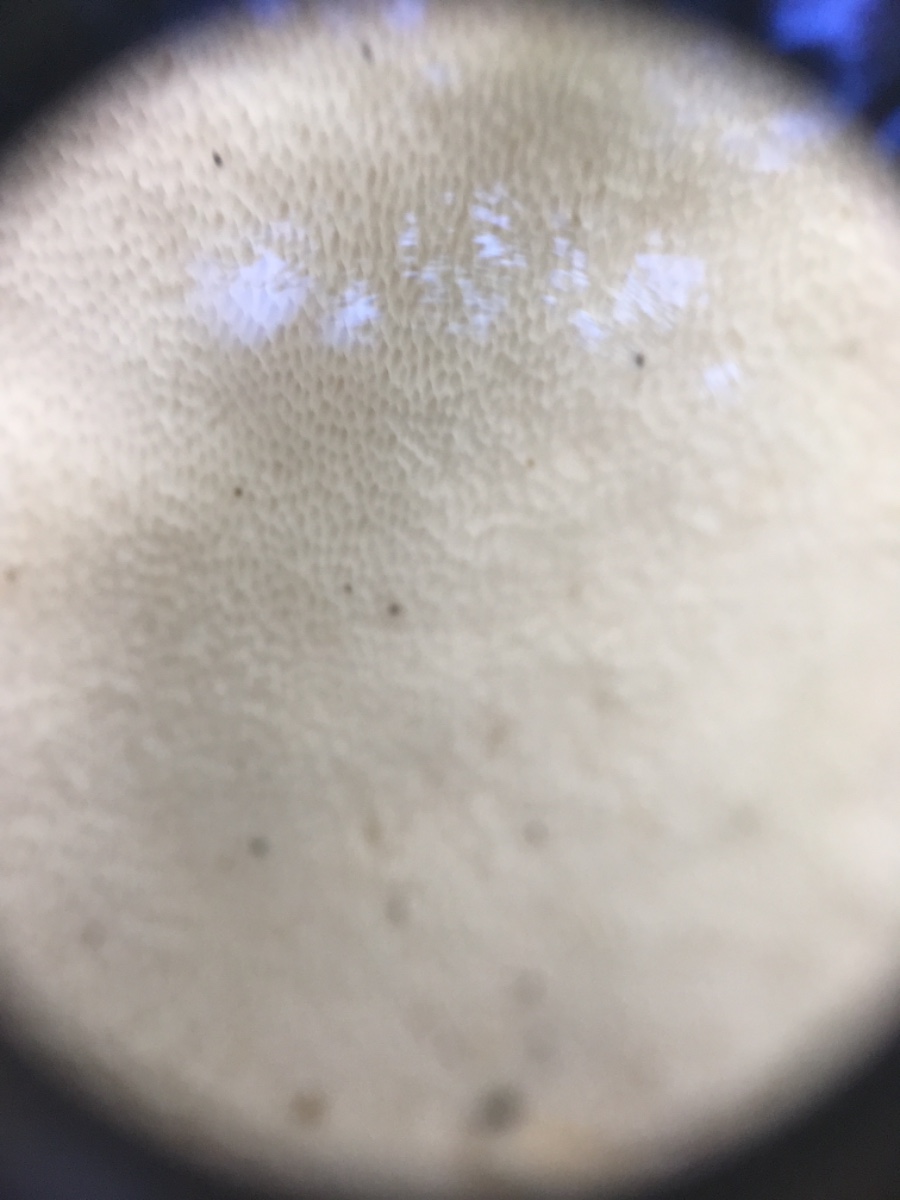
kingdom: Fungi
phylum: Basidiomycota
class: Agaricomycetes
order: Polyporales
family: Incrustoporiaceae
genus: Tyromyces
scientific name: Tyromyces lacteus
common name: mælkehvid kødporesvamp
